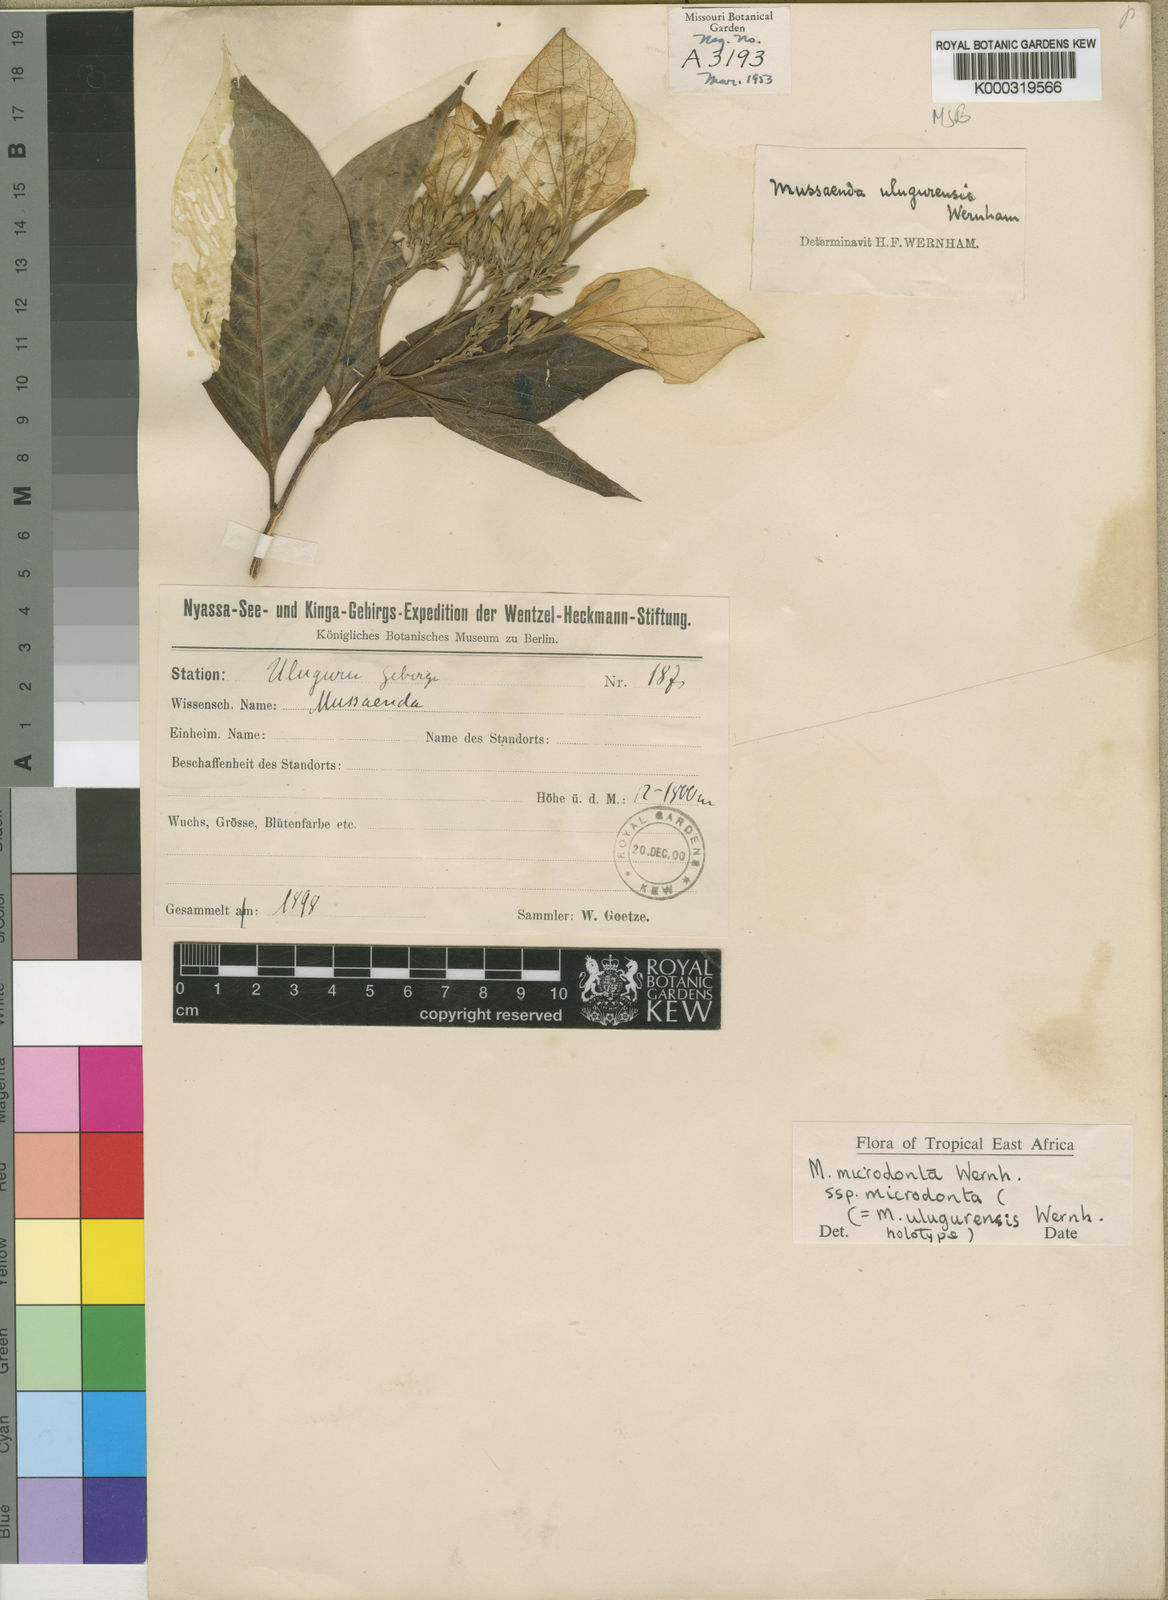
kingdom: Plantae
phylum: Tracheophyta
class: Magnoliopsida
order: Gentianales
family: Rubiaceae
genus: Mussaenda
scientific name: Mussaenda microdonta
